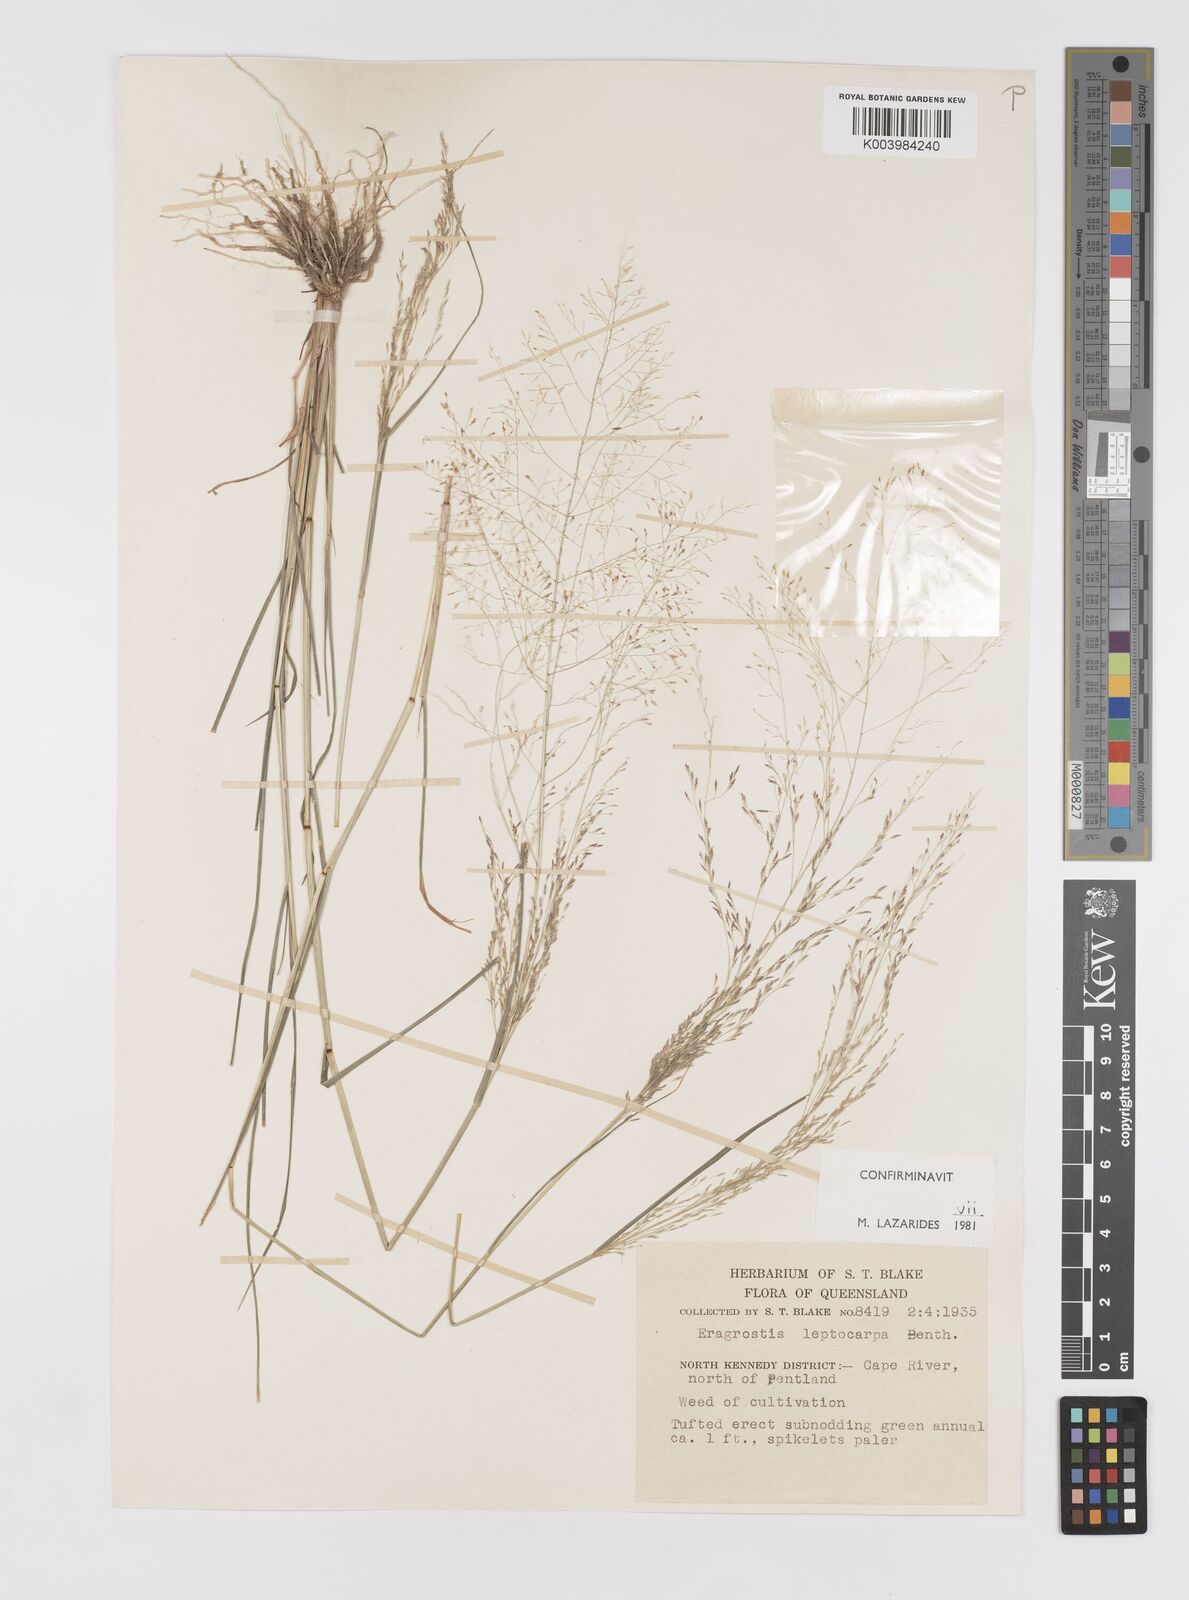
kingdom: Plantae
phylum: Tracheophyta
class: Liliopsida
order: Poales
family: Poaceae
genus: Eragrostis
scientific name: Eragrostis leptocarpa
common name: Drooping love grass
